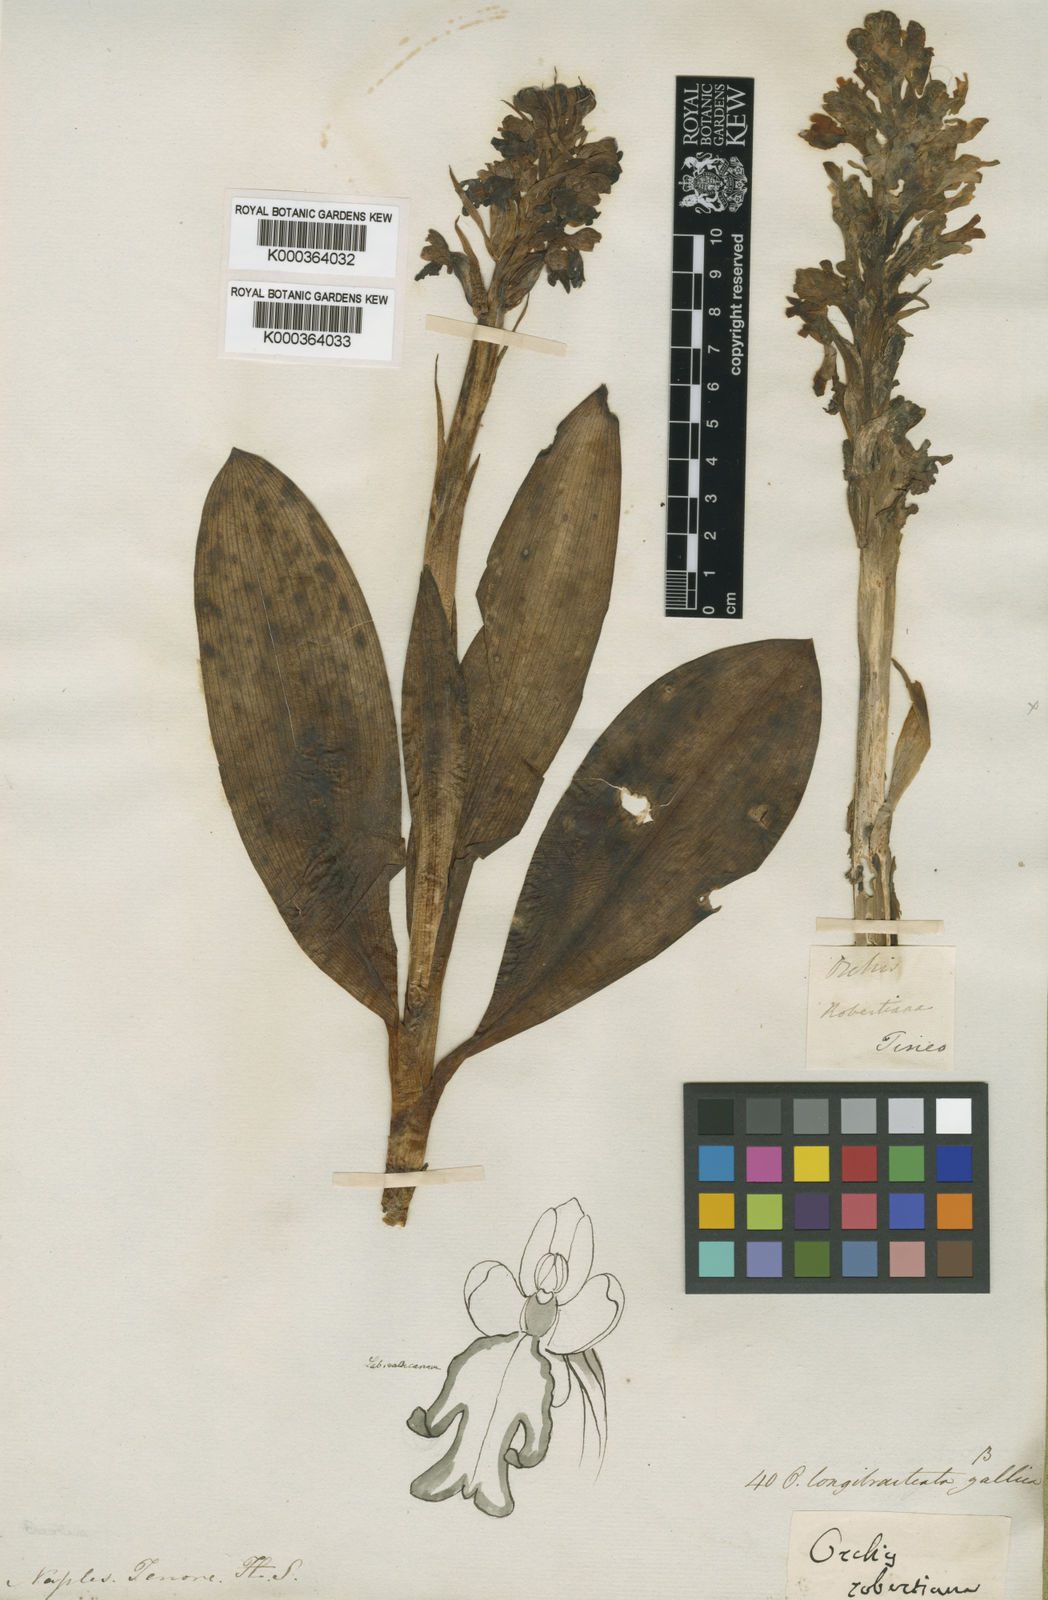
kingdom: Plantae
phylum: Tracheophyta
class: Liliopsida
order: Asparagales
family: Orchidaceae
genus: Himantoglossum
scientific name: Himantoglossum robertianum
